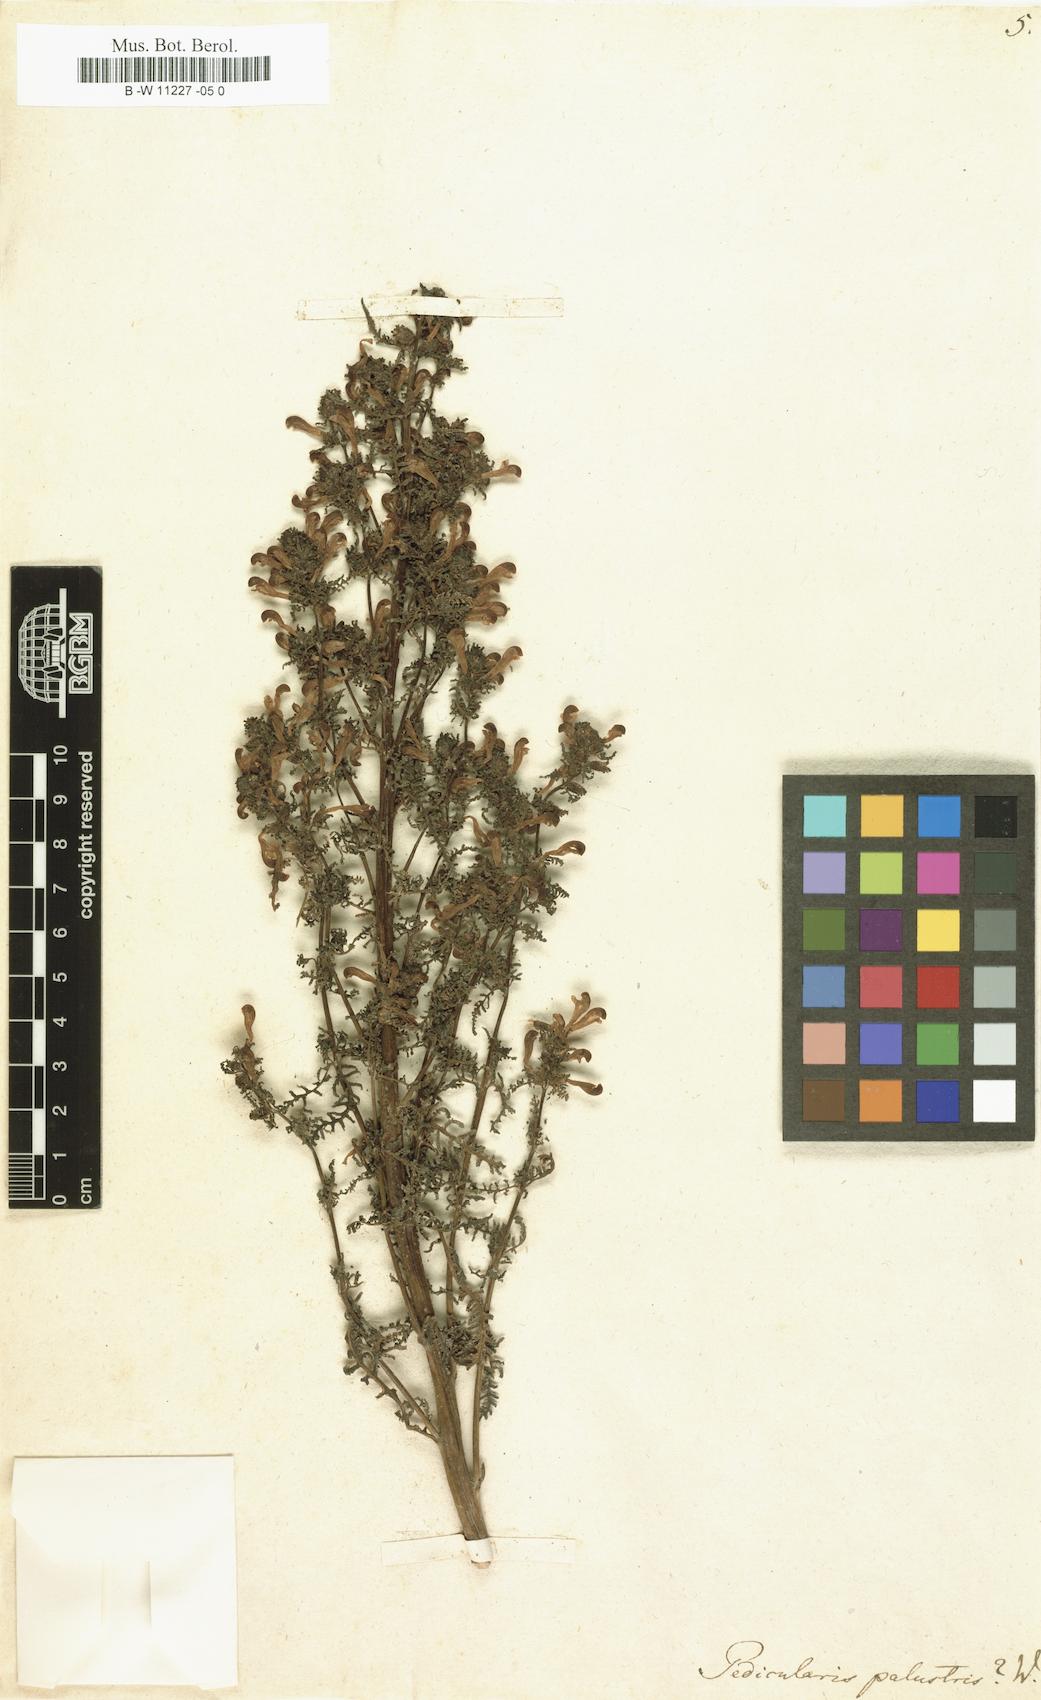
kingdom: Plantae
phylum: Tracheophyta
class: Magnoliopsida
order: Lamiales
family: Orobanchaceae
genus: Pedicularis
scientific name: Pedicularis palustris
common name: Marsh lousewort
